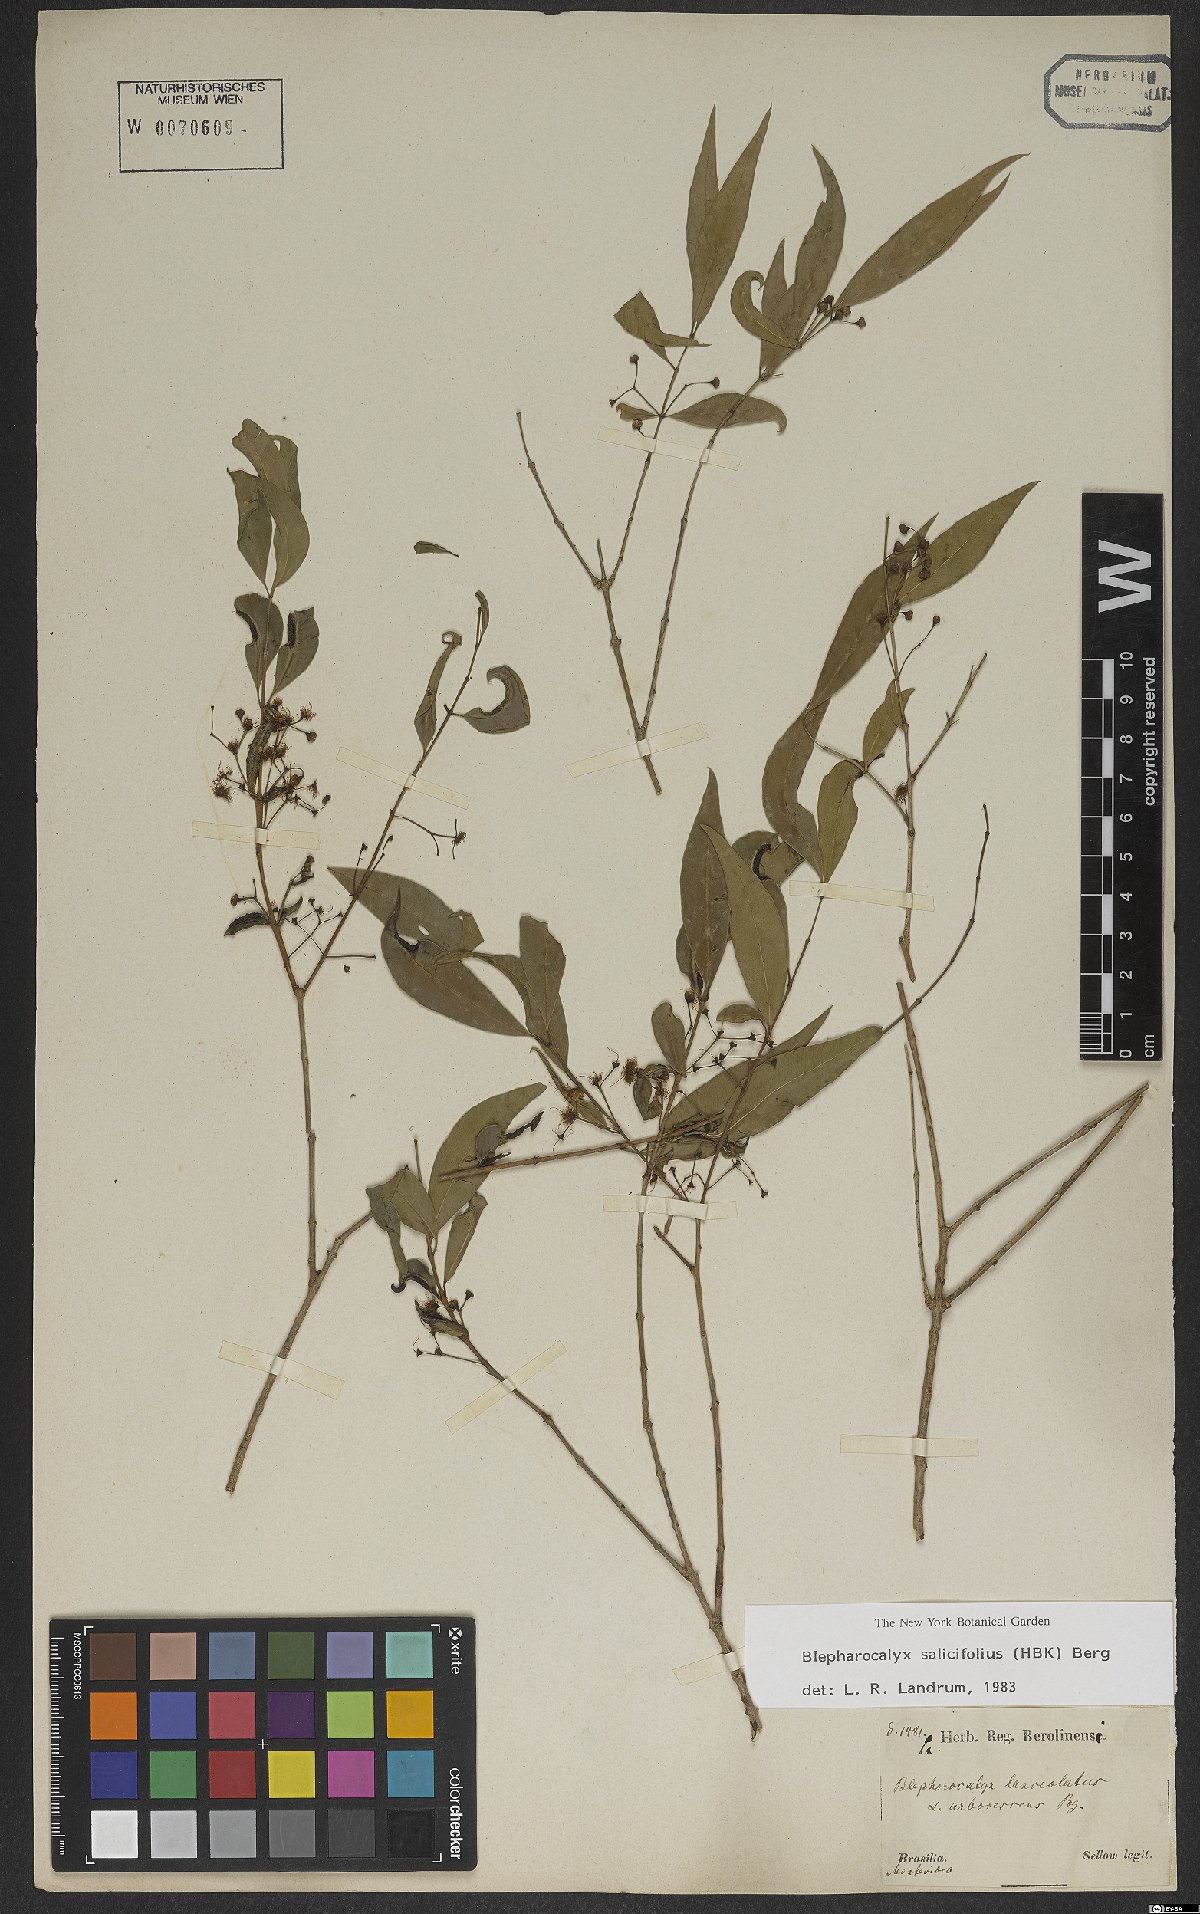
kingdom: Plantae
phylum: Tracheophyta
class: Magnoliopsida
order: Myrtales
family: Myrtaceae
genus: Blepharocalyx
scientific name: Blepharocalyx salicifolius
